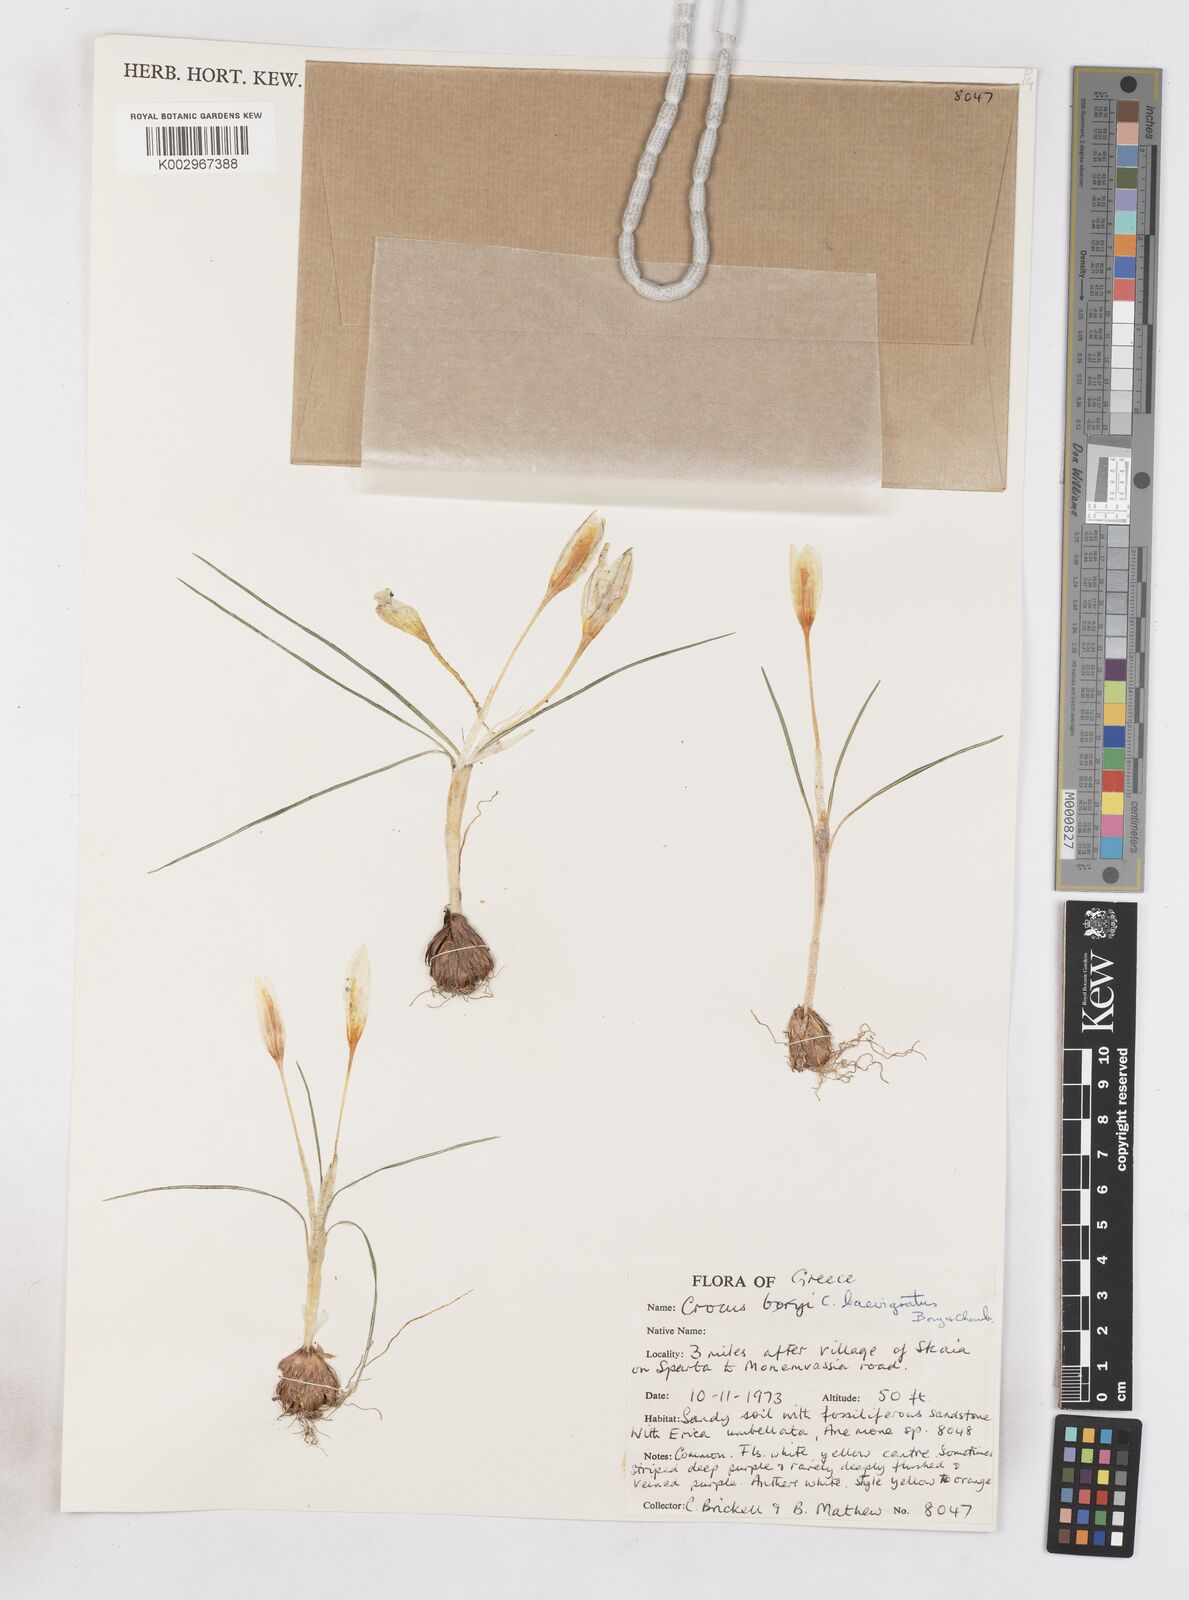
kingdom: Plantae
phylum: Tracheophyta
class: Liliopsida
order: Asparagales
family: Iridaceae
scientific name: Iridaceae
